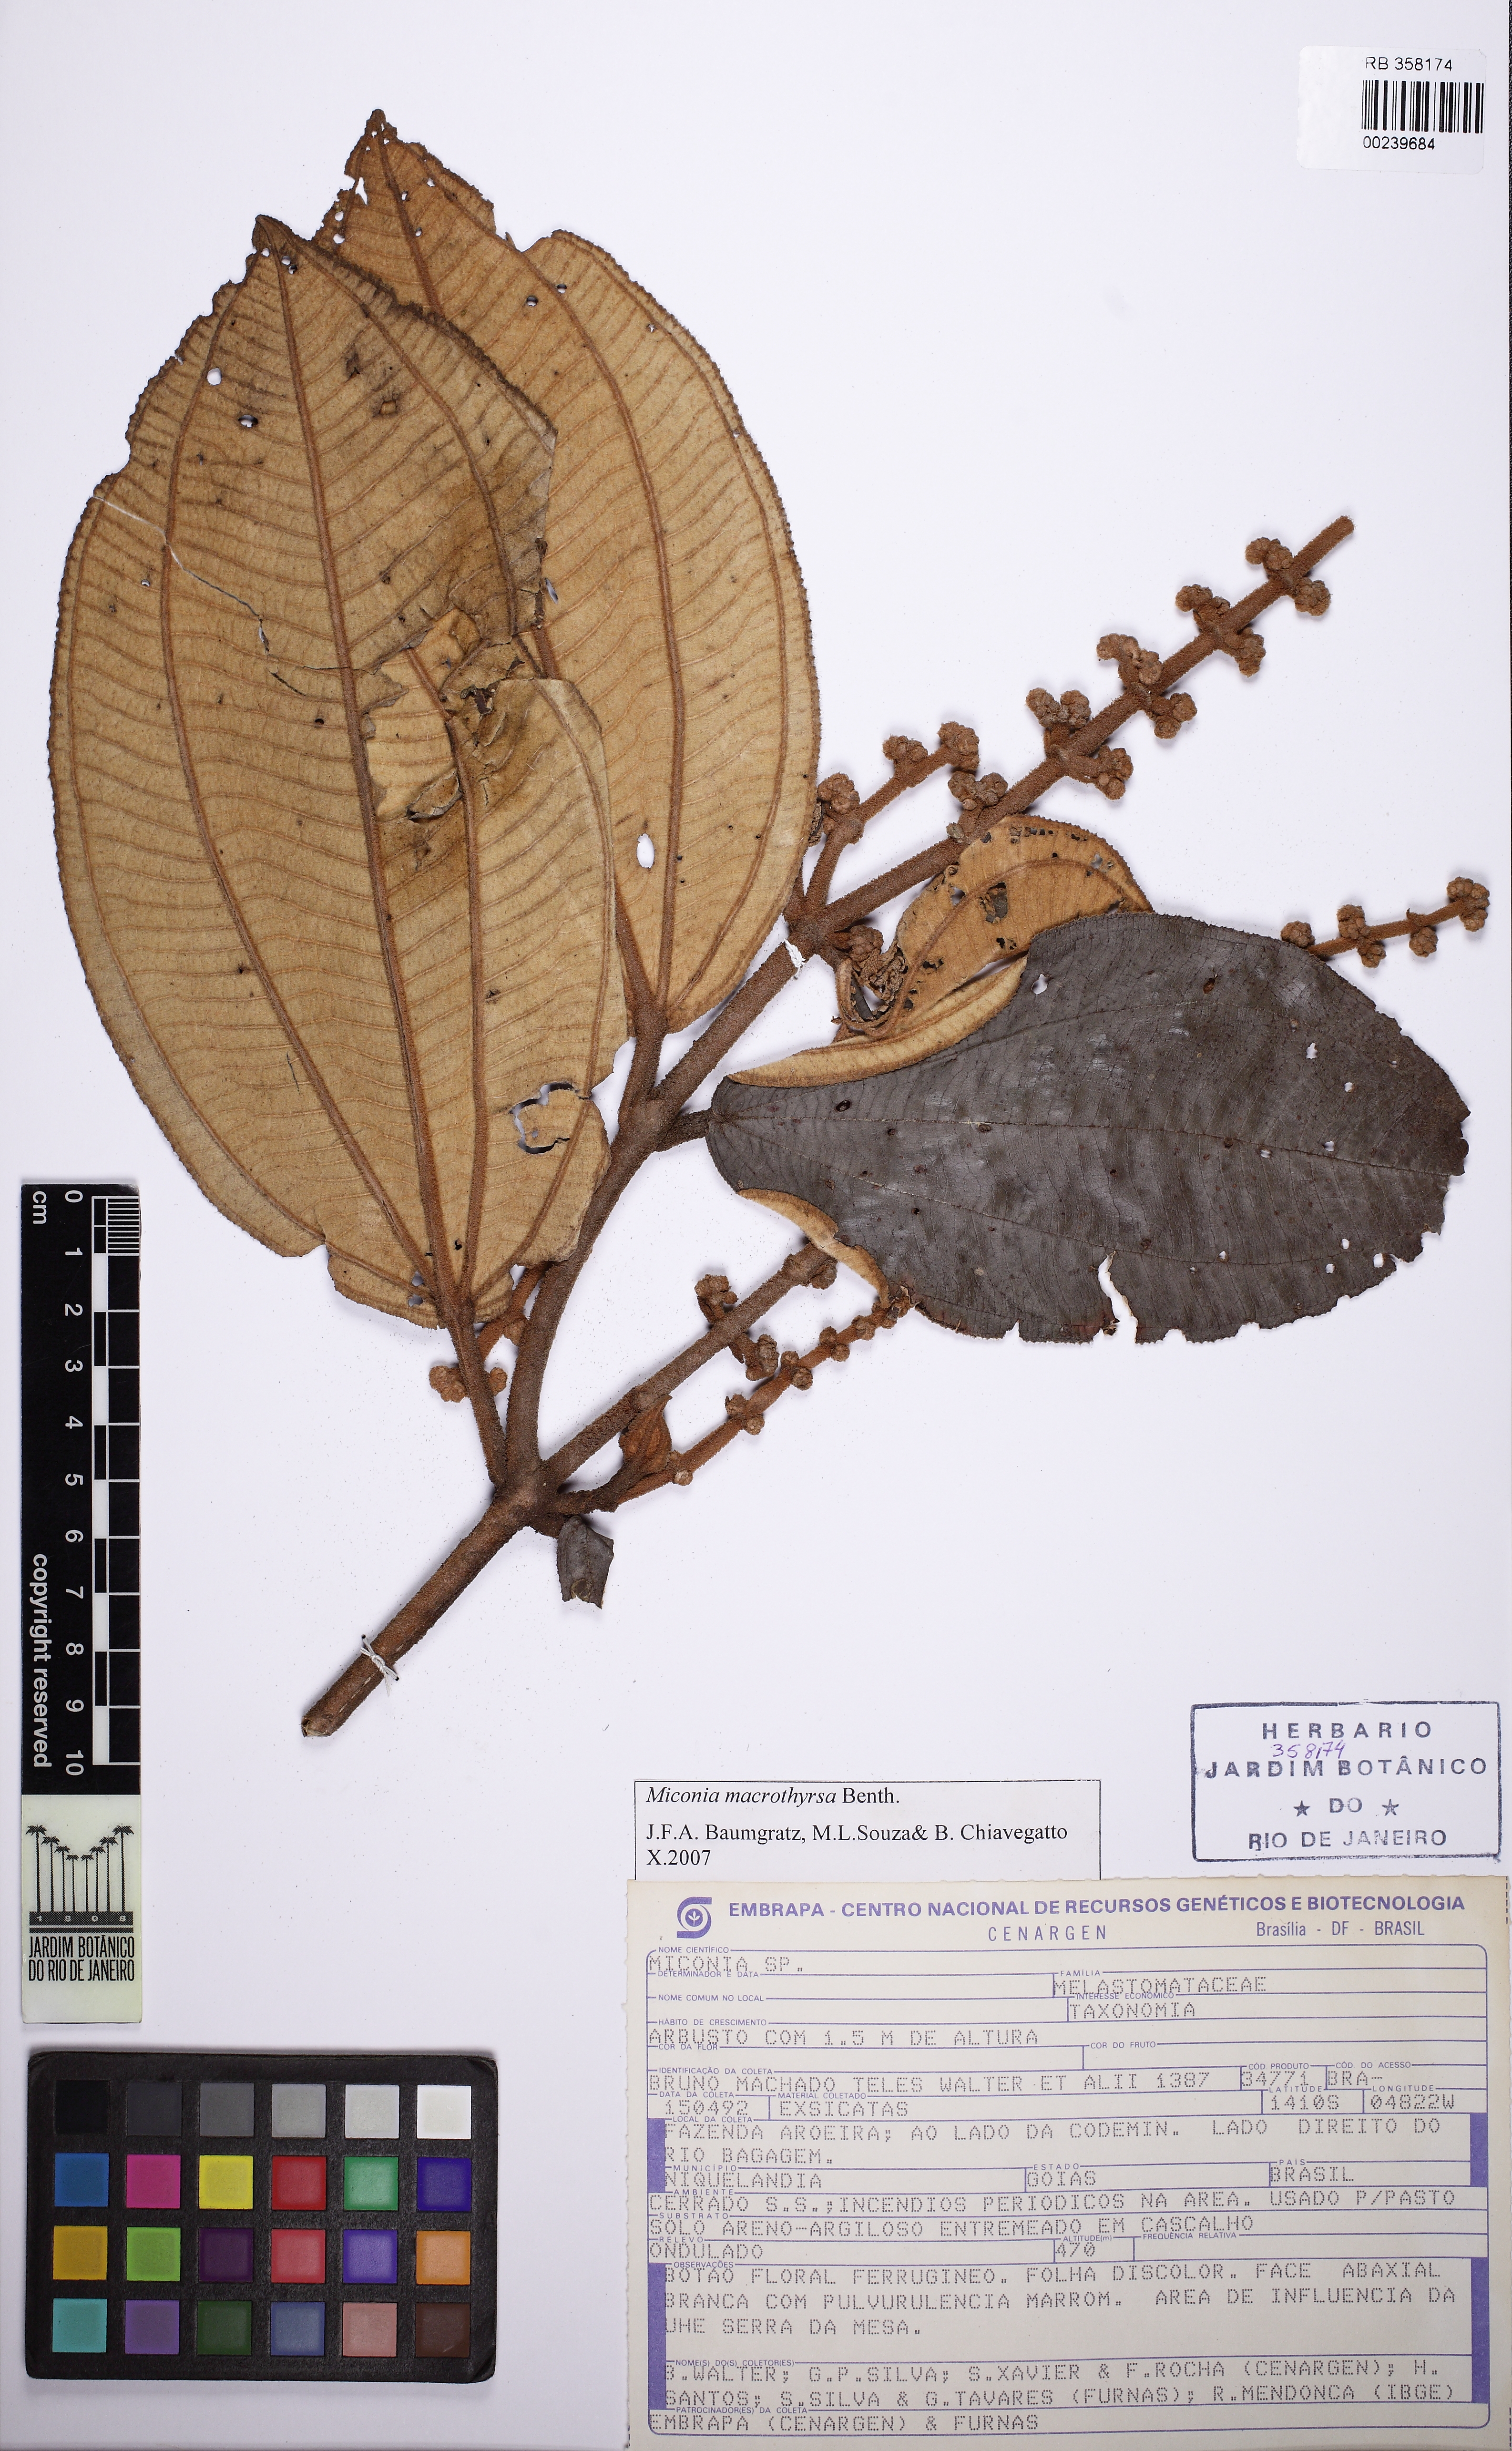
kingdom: Plantae
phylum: Tracheophyta
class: Magnoliopsida
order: Myrtales
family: Melastomataceae
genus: Miconia
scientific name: Miconia macrothyrsa
